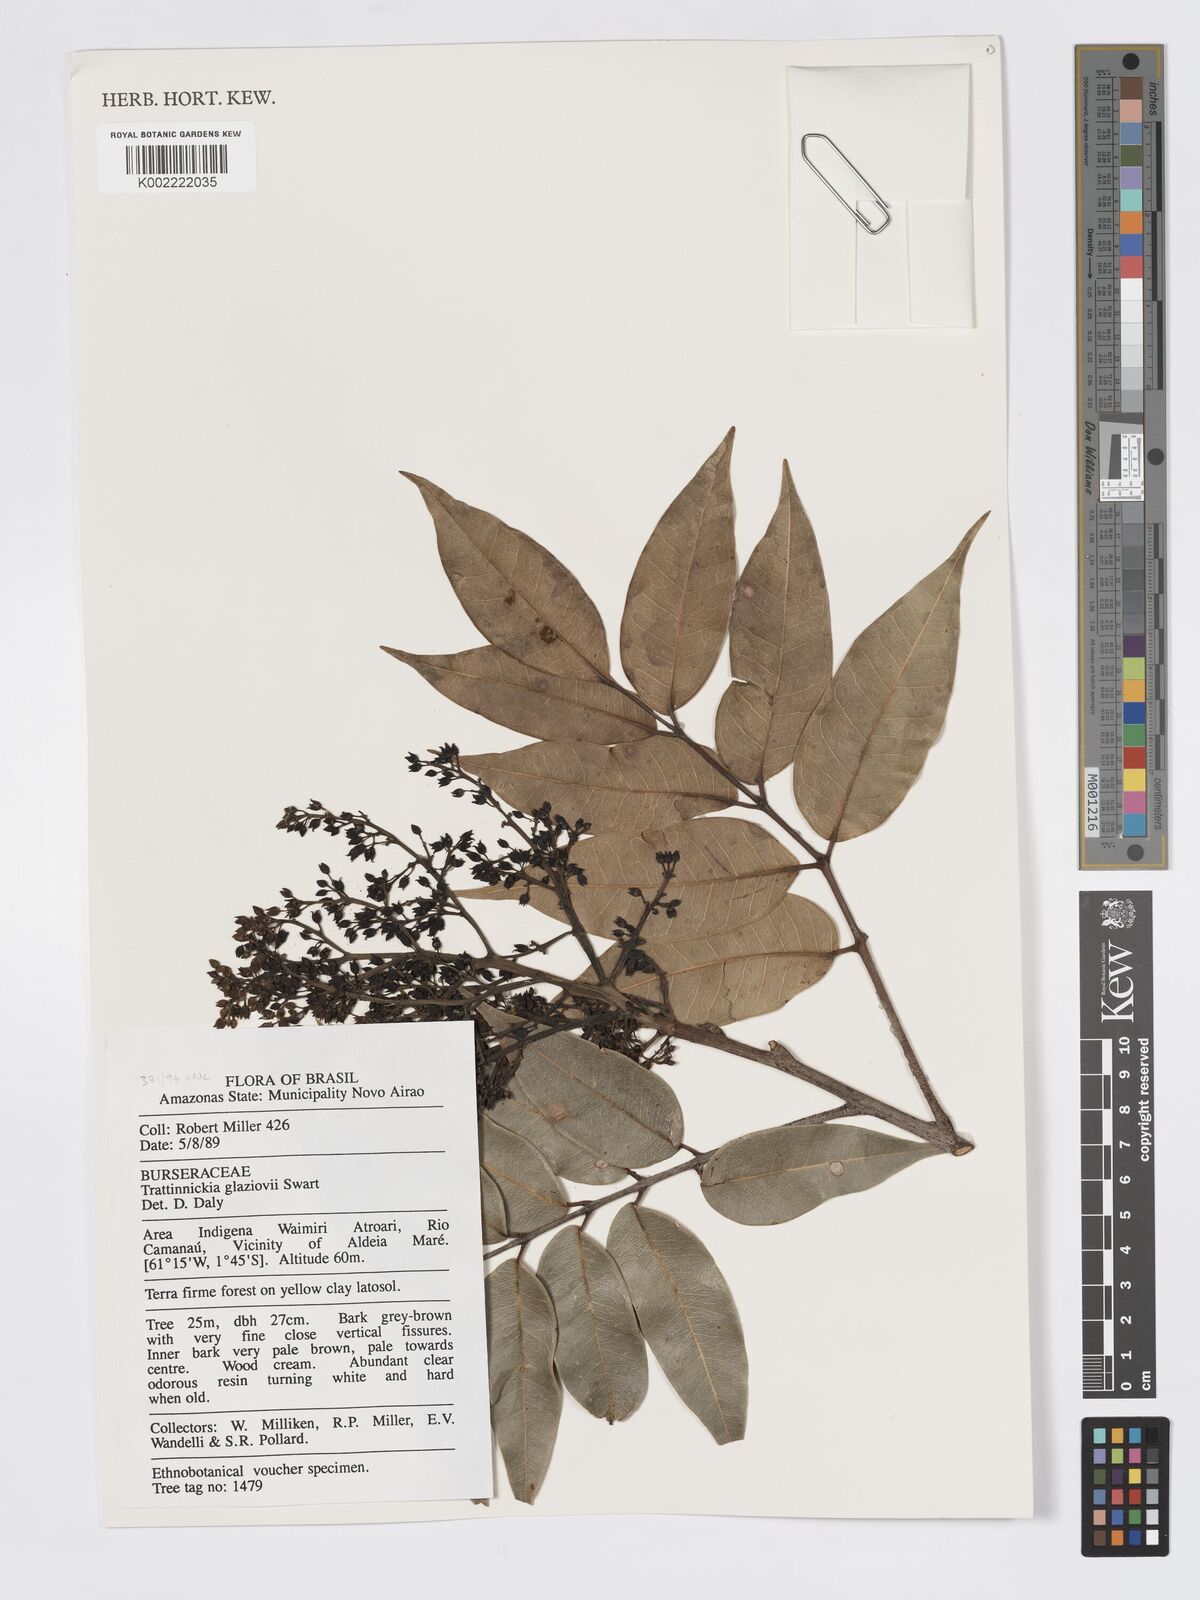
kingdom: Plantae
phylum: Tracheophyta
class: Magnoliopsida
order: Sapindales
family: Burseraceae
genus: Trattinnickia
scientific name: Trattinnickia glaziovii
